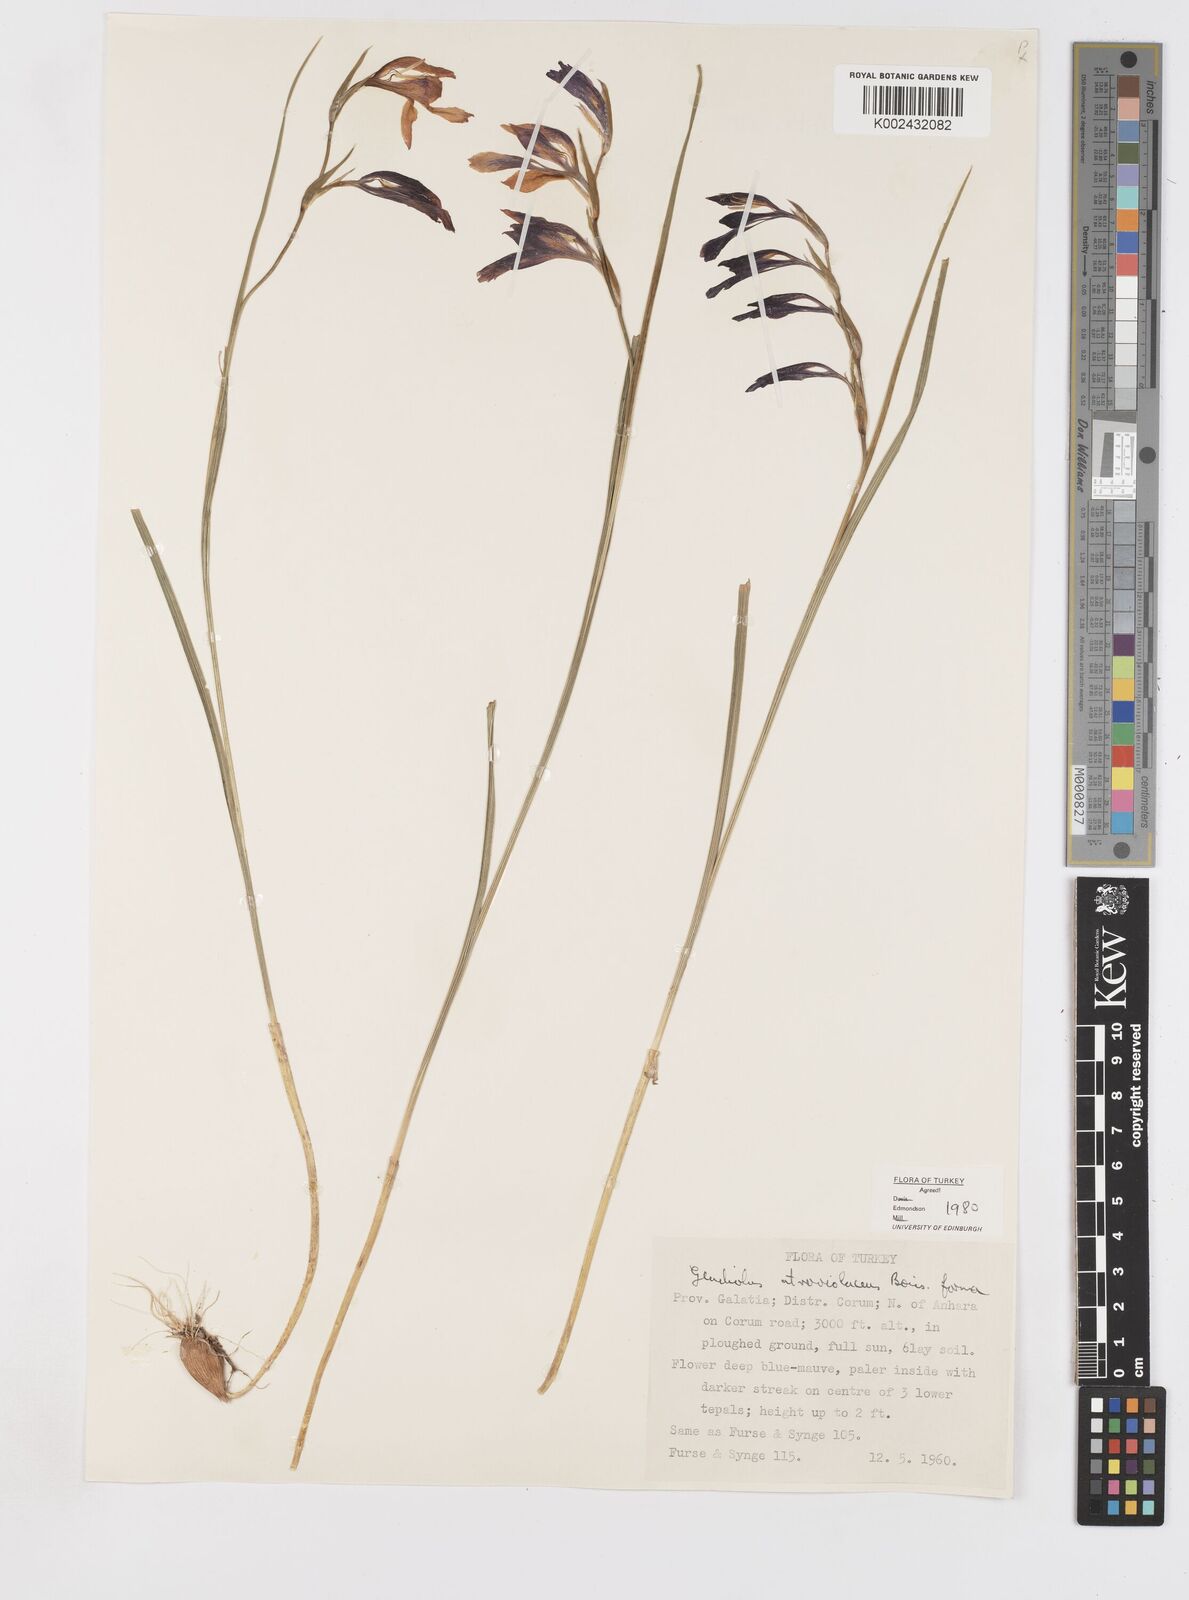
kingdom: Plantae
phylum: Tracheophyta
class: Liliopsida
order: Asparagales
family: Iridaceae
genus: Gladiolus
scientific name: Gladiolus atroviolaceus
